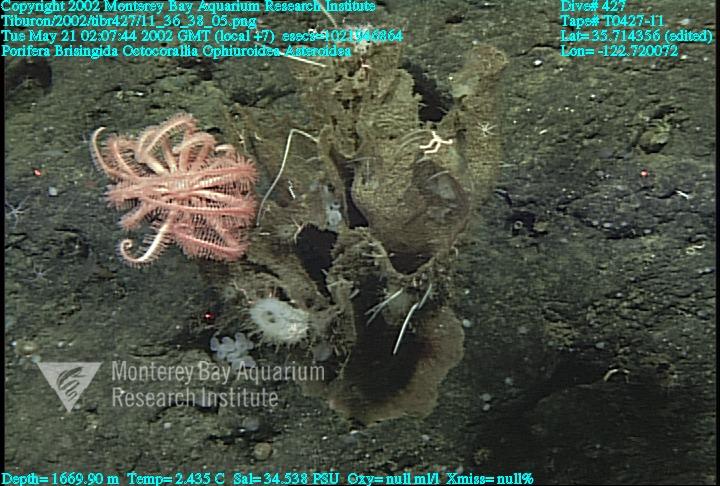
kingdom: Animalia
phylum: Porifera
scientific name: Porifera
